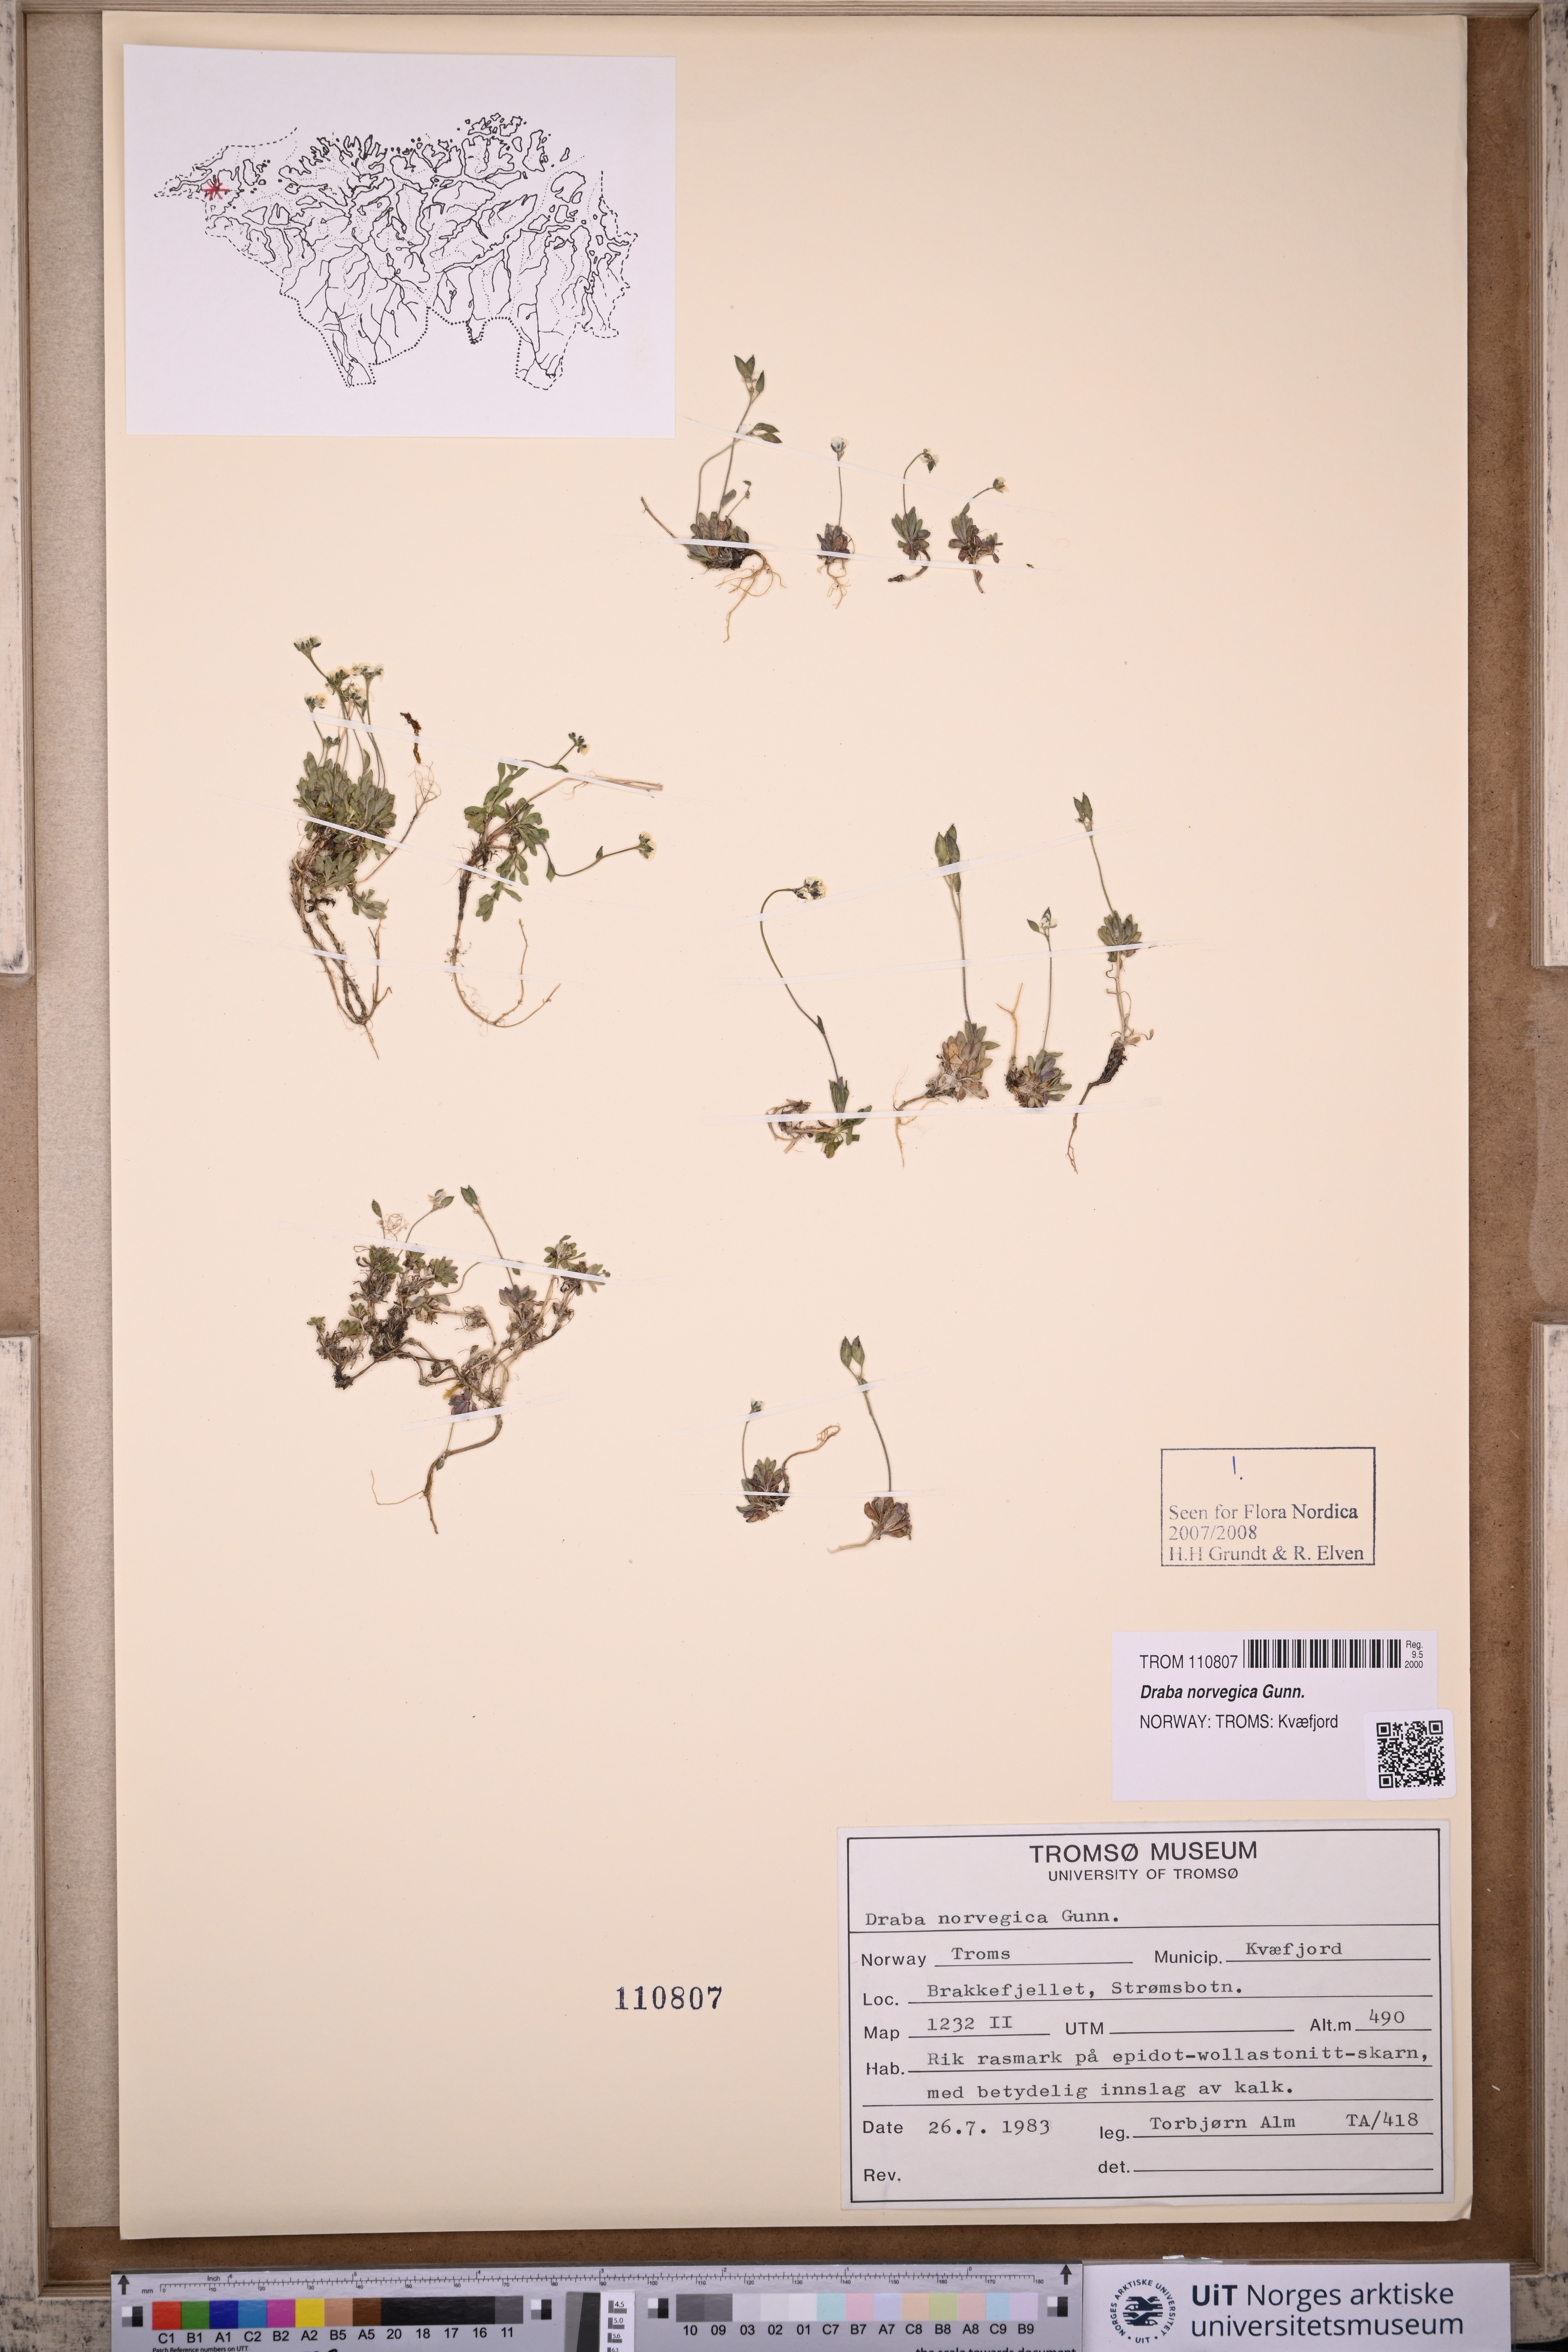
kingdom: Plantae
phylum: Tracheophyta
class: Magnoliopsida
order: Brassicales
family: Brassicaceae
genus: Draba
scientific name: Draba norvegica
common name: Rock whitlowgrass
